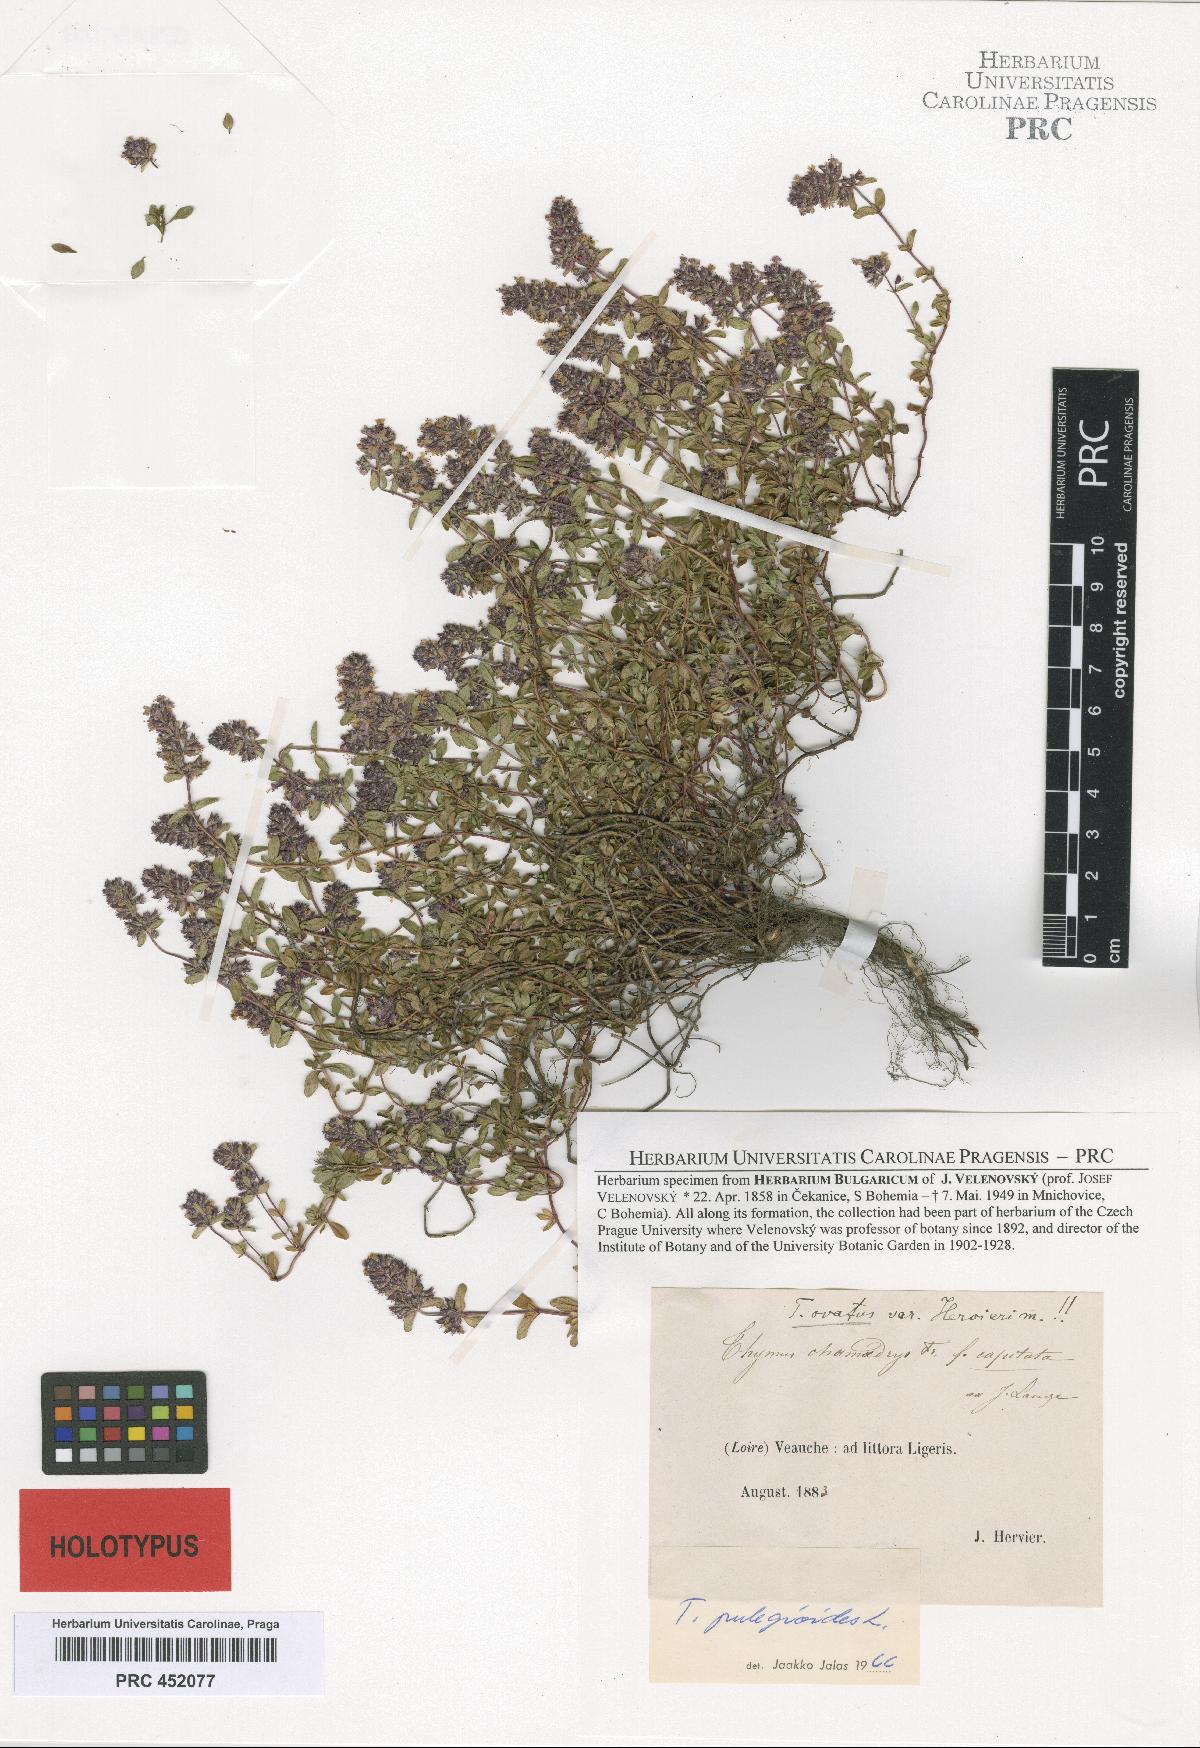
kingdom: Plantae
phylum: Tracheophyta
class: Magnoliopsida
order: Lamiales
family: Lamiaceae
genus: Thymus
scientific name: Thymus pulegioides
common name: Large thyme
